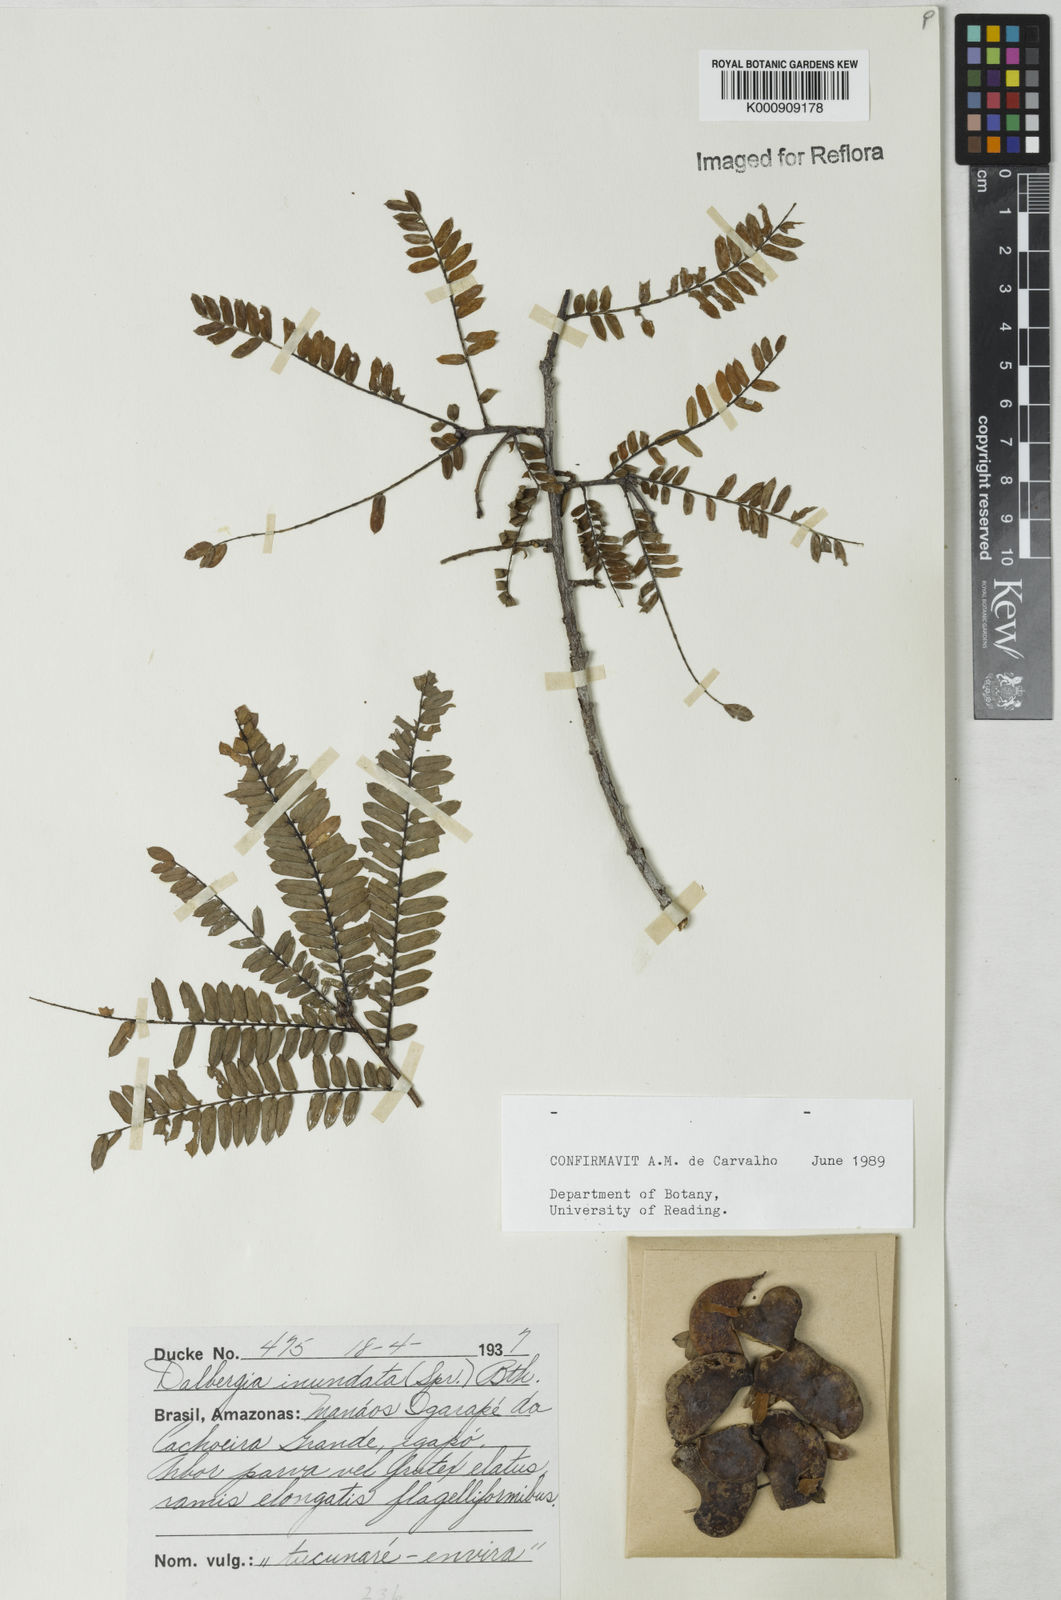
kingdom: Plantae
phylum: Tracheophyta
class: Magnoliopsida
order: Fabales
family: Fabaceae
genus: Dalbergia
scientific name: Dalbergia inundata
